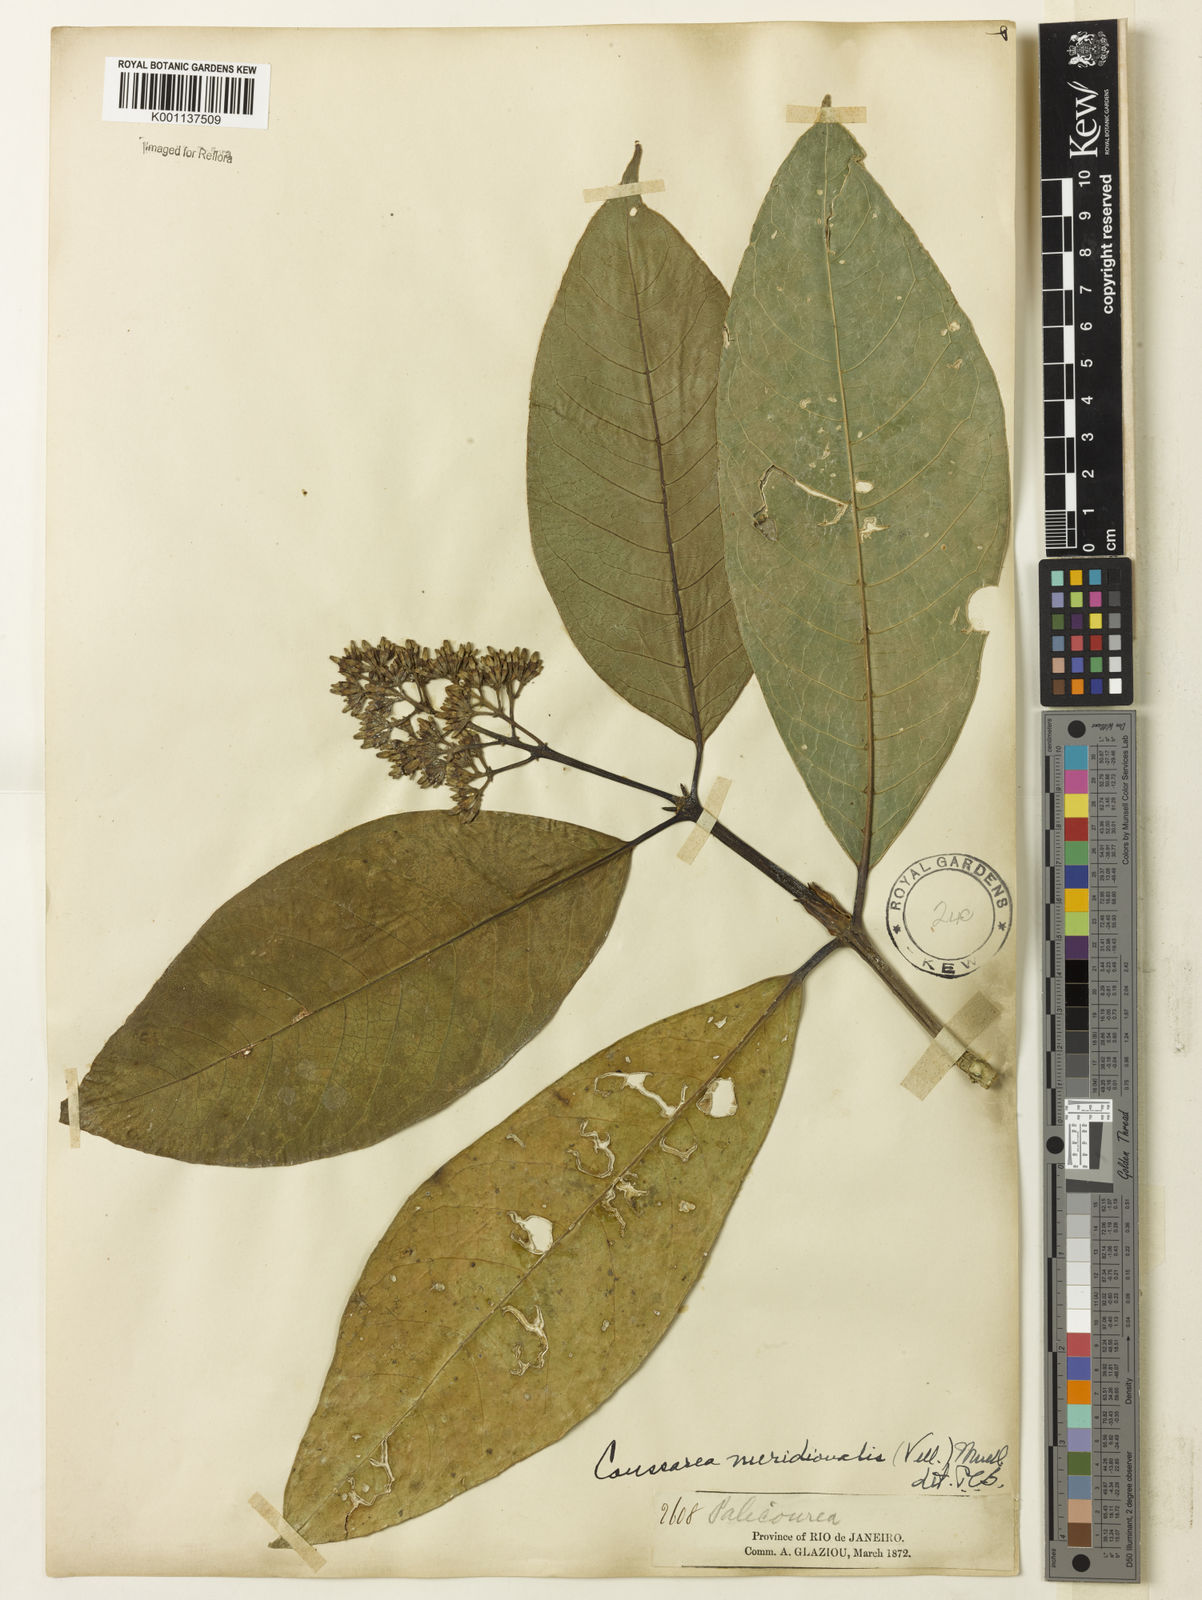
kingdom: Plantae
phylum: Tracheophyta
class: Magnoliopsida
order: Gentianales
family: Rubiaceae
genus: Coussarea
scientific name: Coussarea
